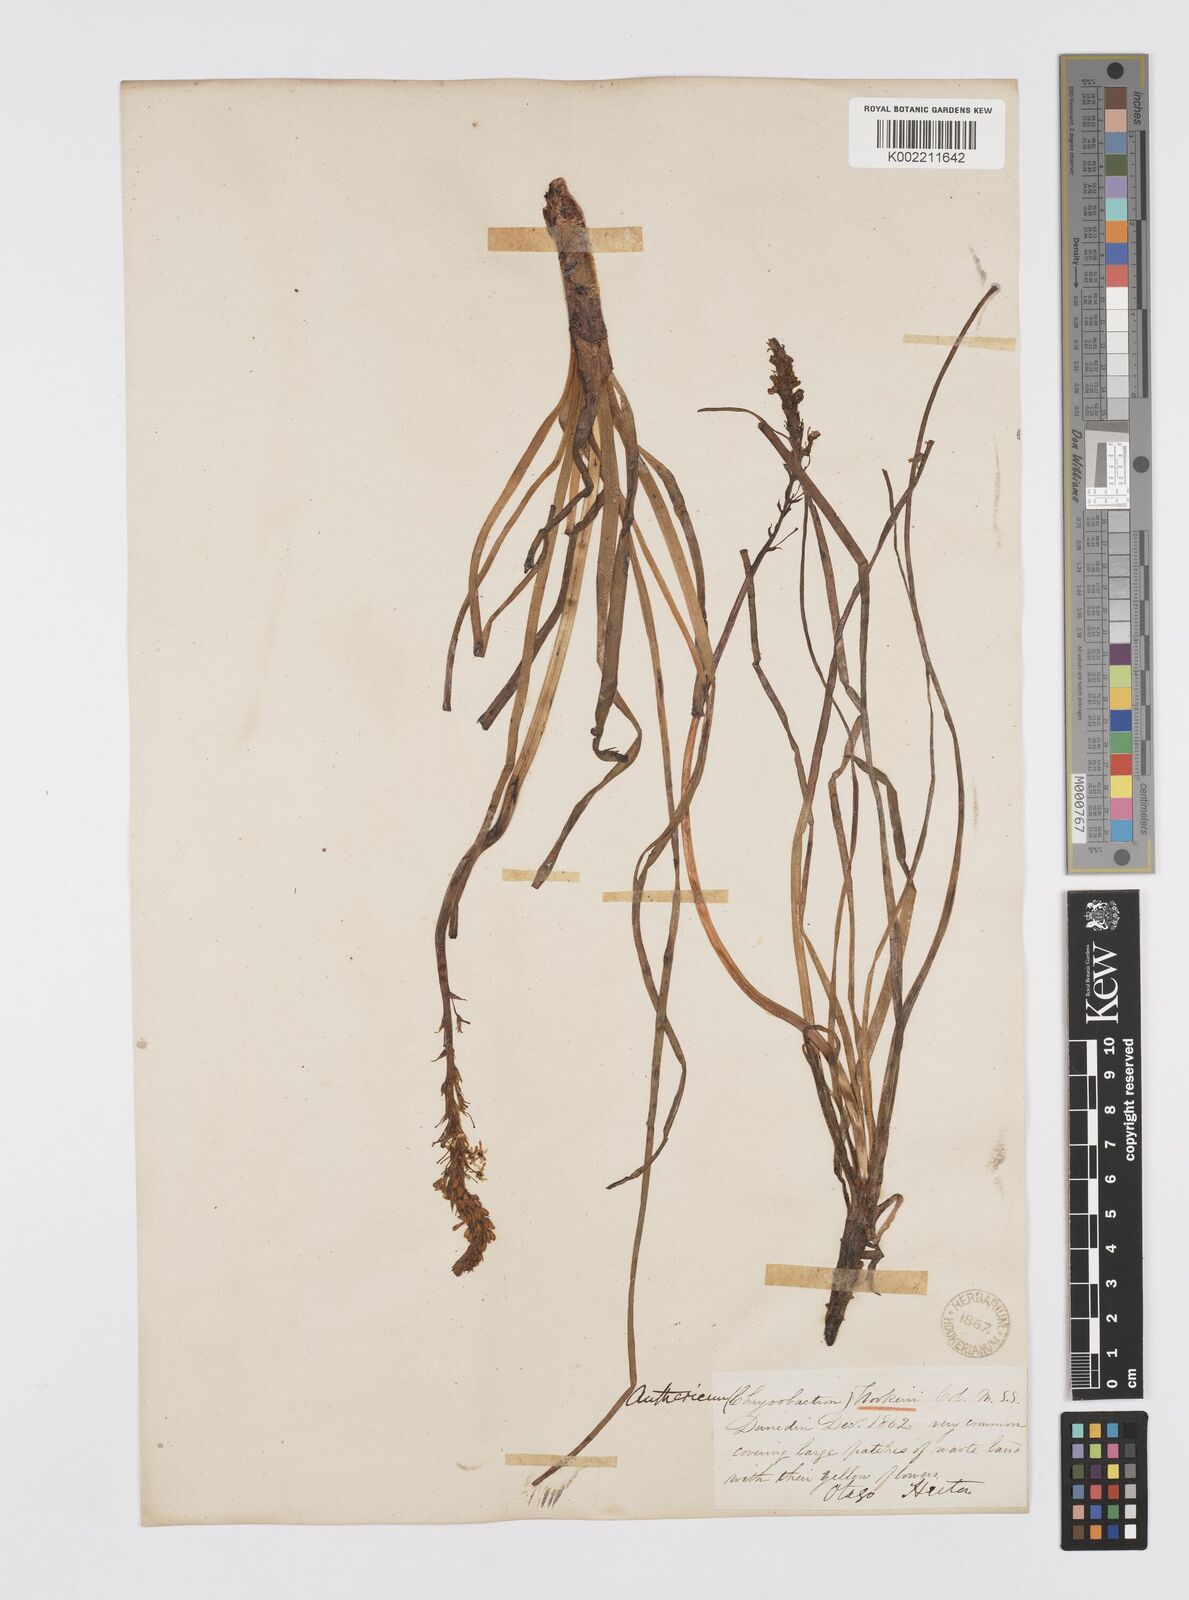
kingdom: Plantae
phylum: Tracheophyta
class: Liliopsida
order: Asparagales
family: Asphodelaceae
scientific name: Asphodelaceae
